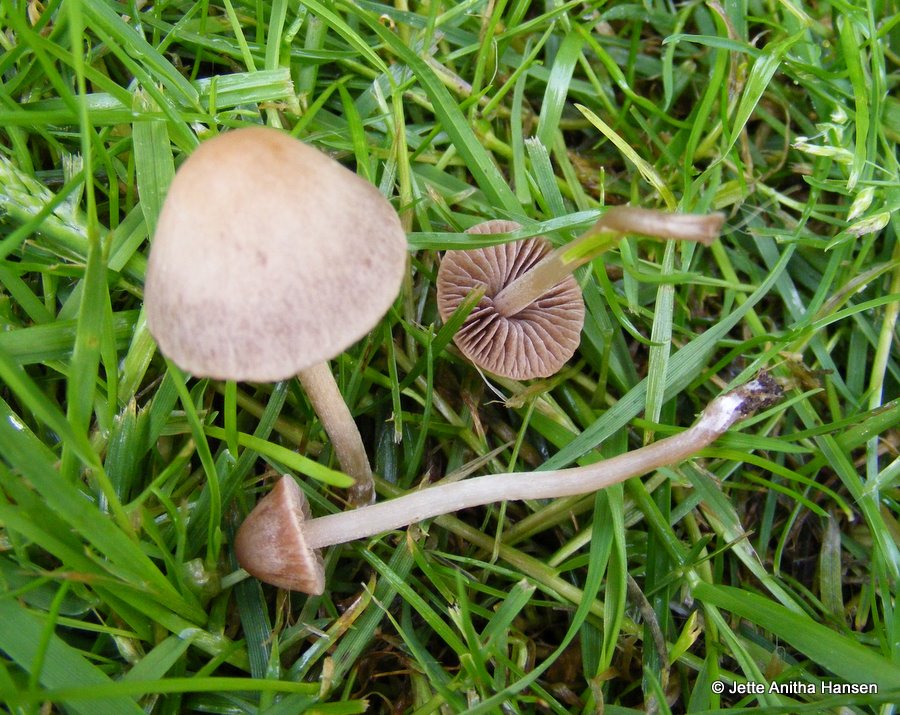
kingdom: Fungi
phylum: Basidiomycota
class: Agaricomycetes
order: Agaricales
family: Bolbitiaceae
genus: Panaeolina
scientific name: Panaeolina foenisecii
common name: høslætsvamp
